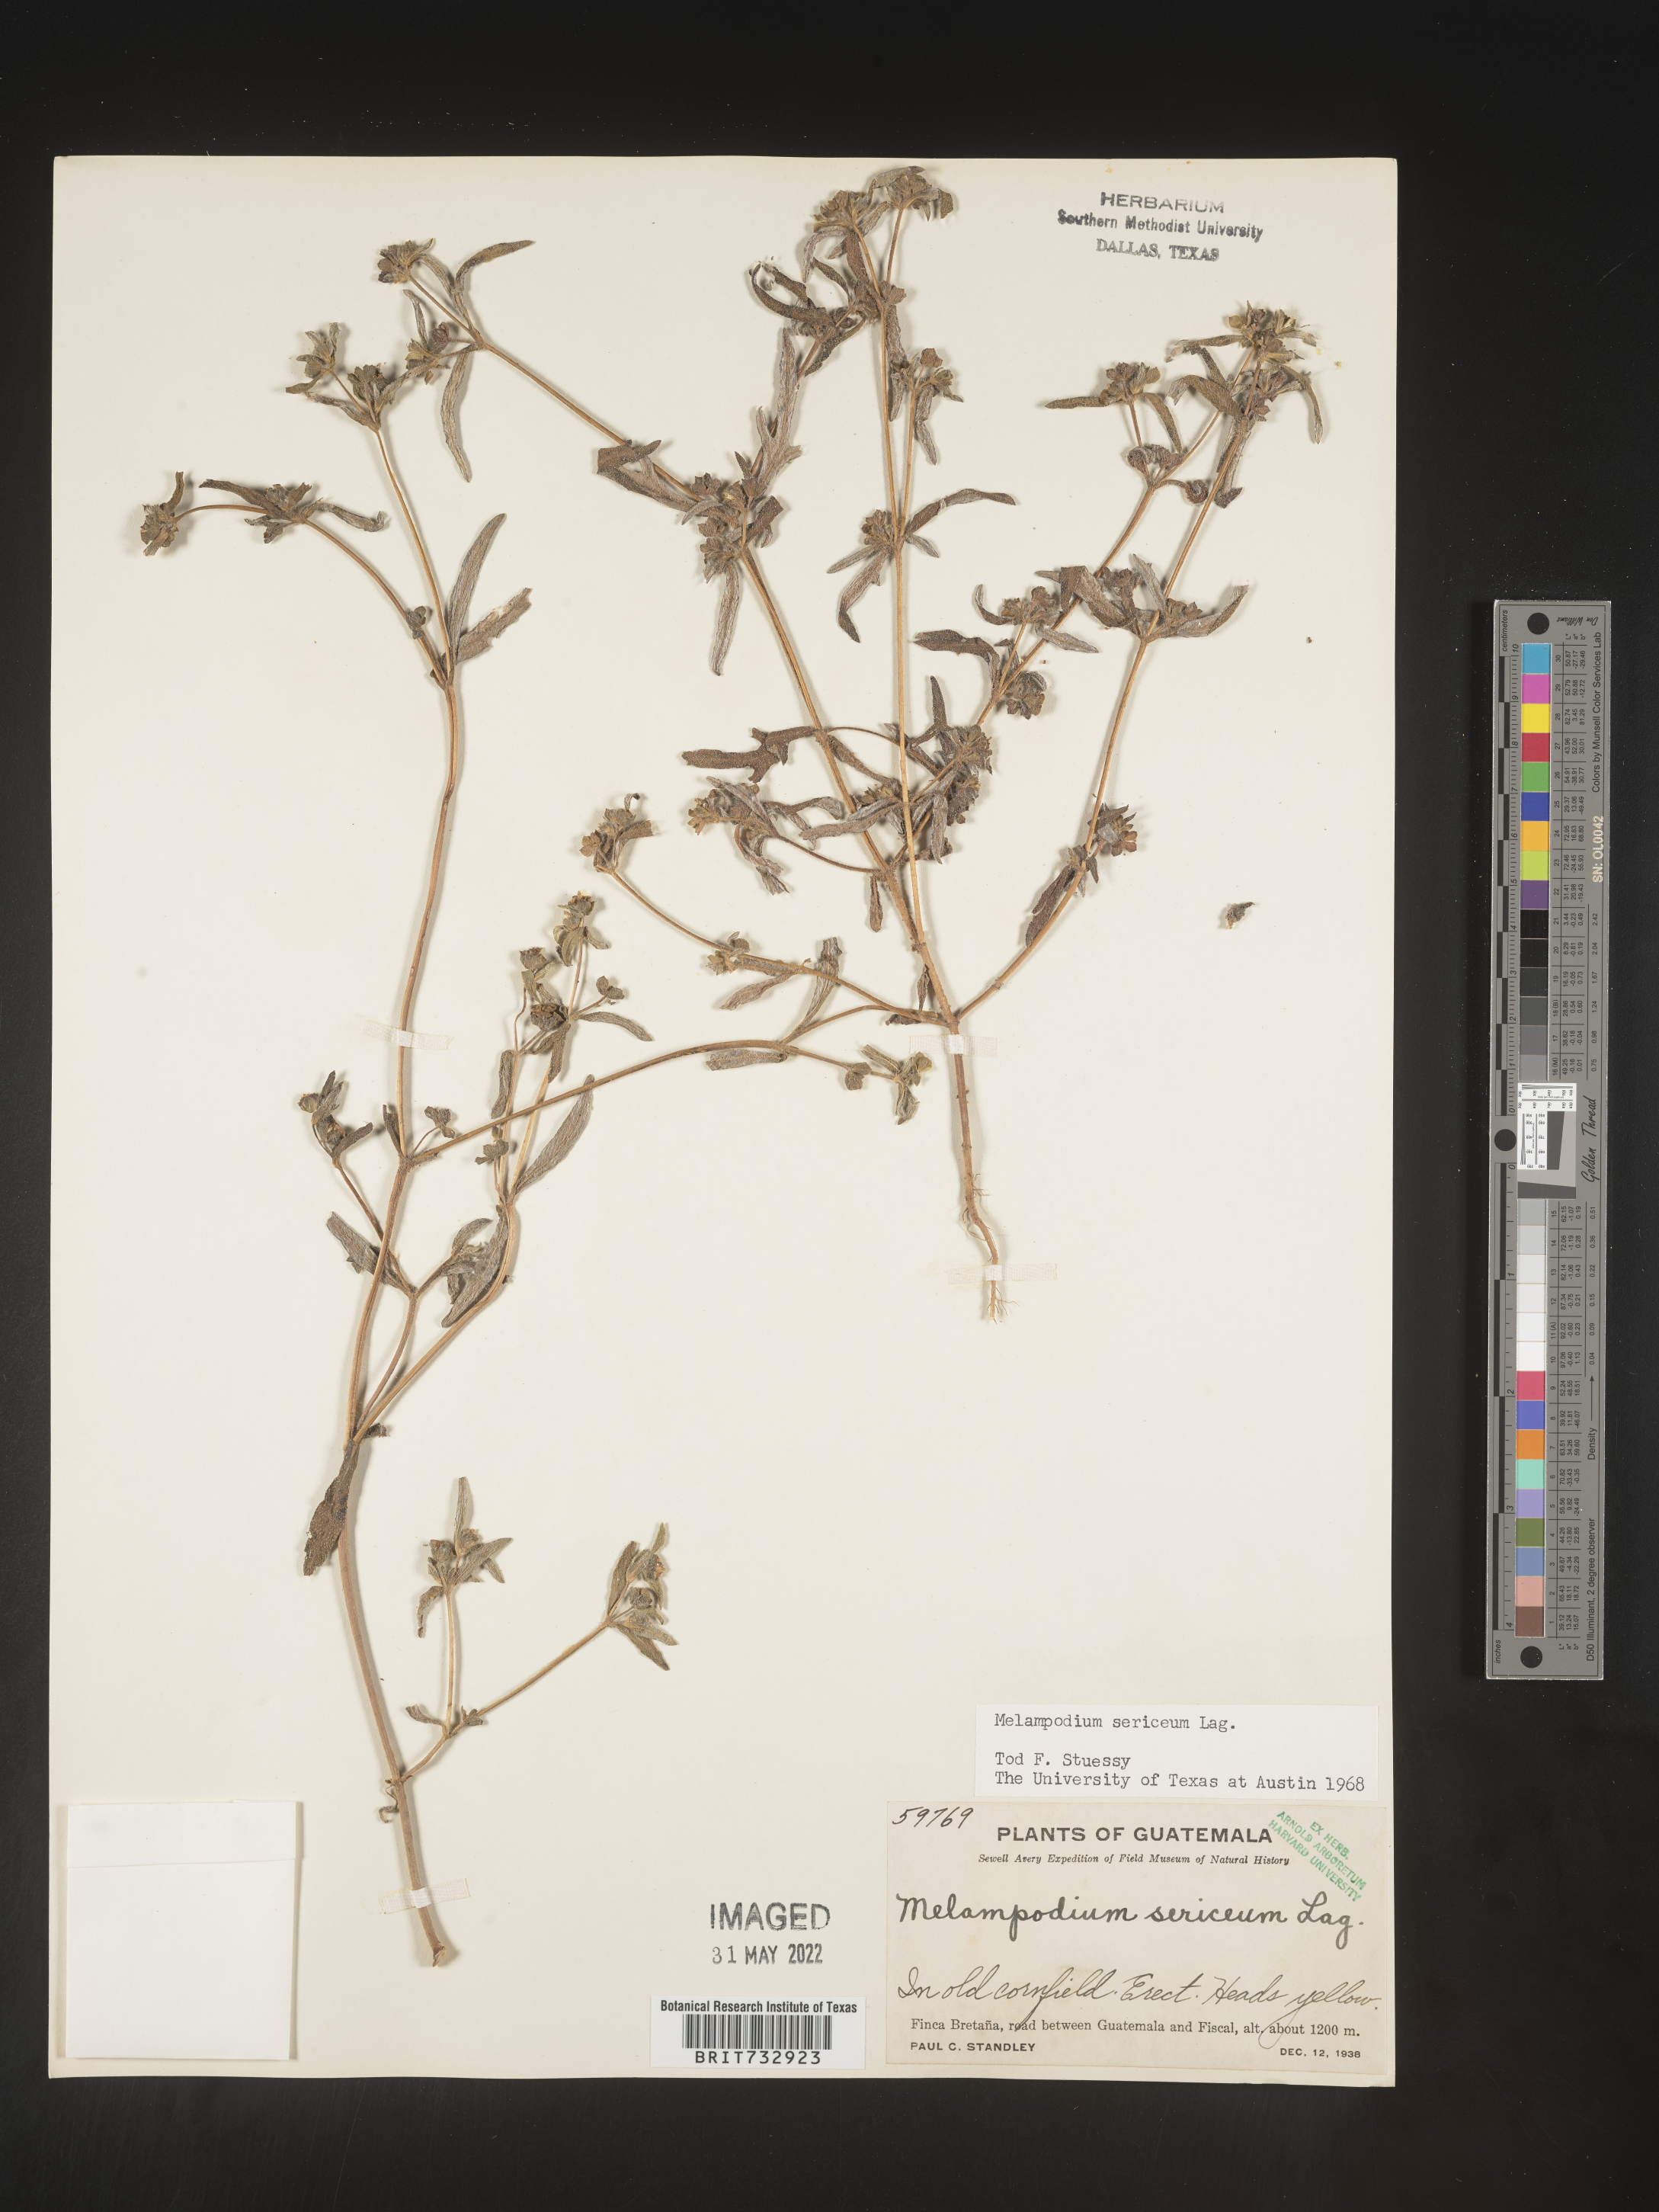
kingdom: Plantae
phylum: Tracheophyta
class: Magnoliopsida
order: Asterales
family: Asteraceae
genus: Melampodium
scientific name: Melampodium
